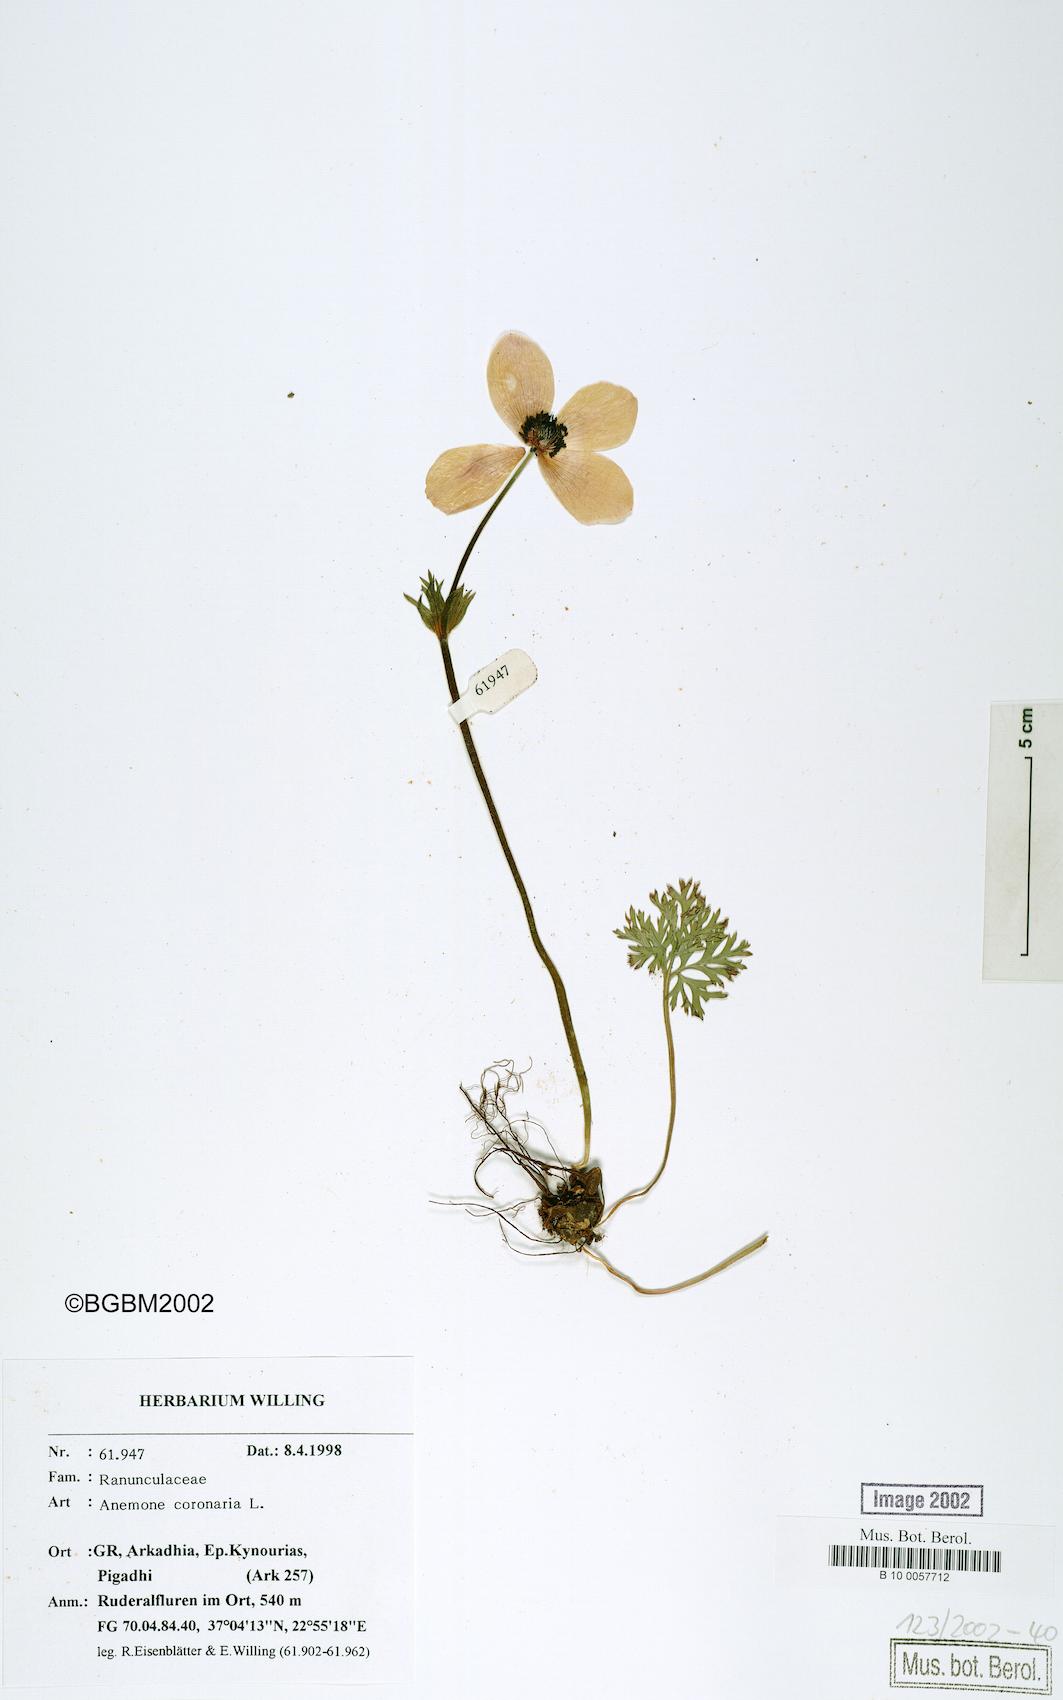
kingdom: Plantae
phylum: Tracheophyta
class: Magnoliopsida
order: Ranunculales
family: Ranunculaceae
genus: Anemone
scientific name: Anemone coronaria
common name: Poppy anemone
